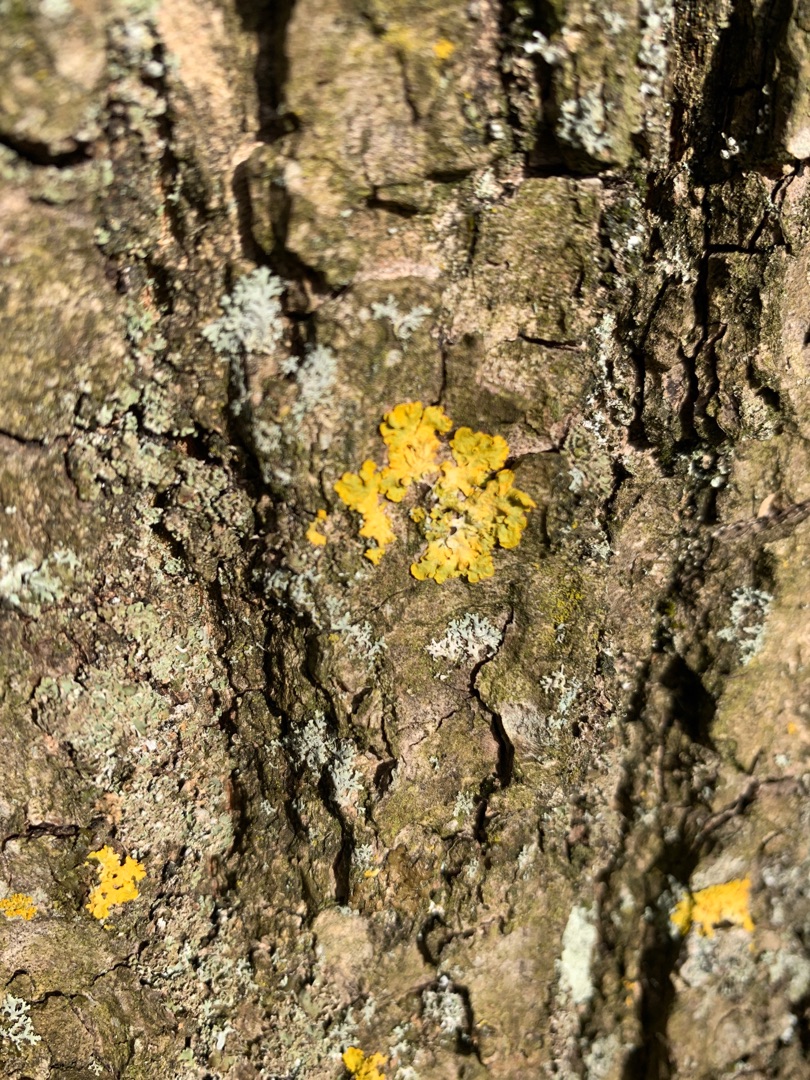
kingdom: Fungi
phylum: Ascomycota
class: Lecanoromycetes
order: Teloschistales
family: Teloschistaceae
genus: Xanthoria
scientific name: Xanthoria parietina
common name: Almindelig væggelav
